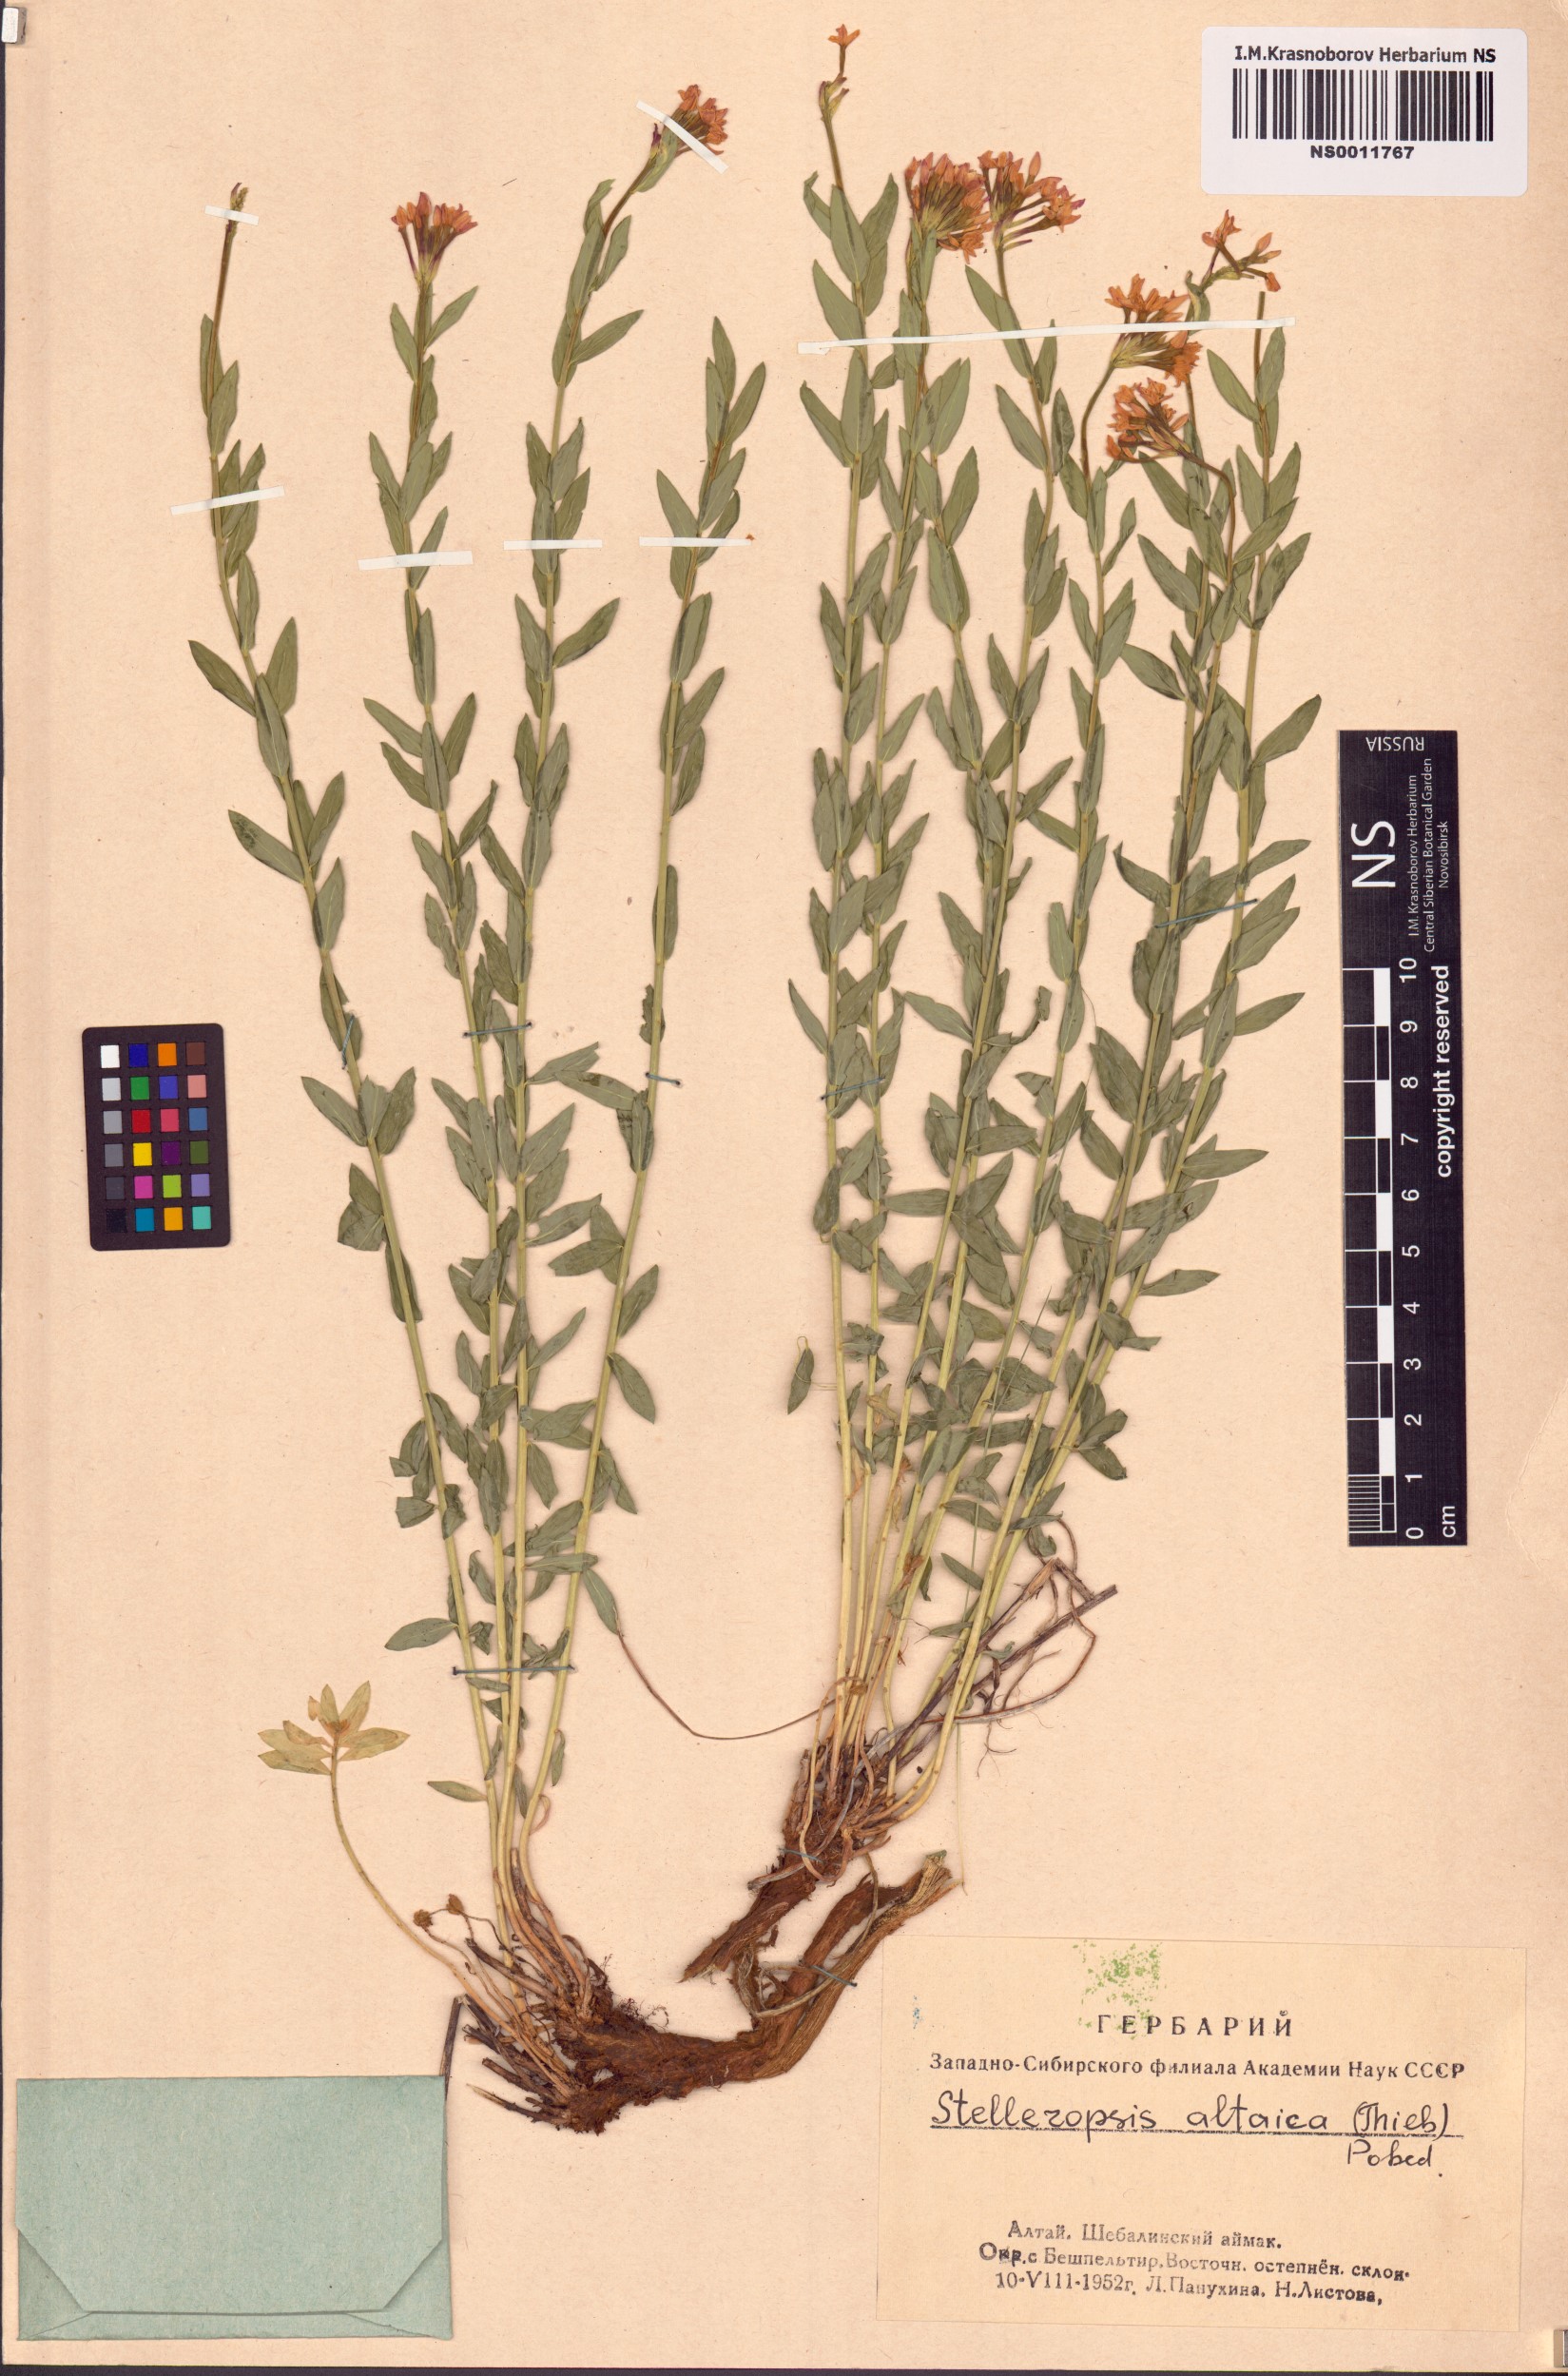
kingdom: Plantae
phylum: Tracheophyta
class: Magnoliopsida
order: Malvales
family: Thymelaeaceae
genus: Diarthron
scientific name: Diarthron altaicum
